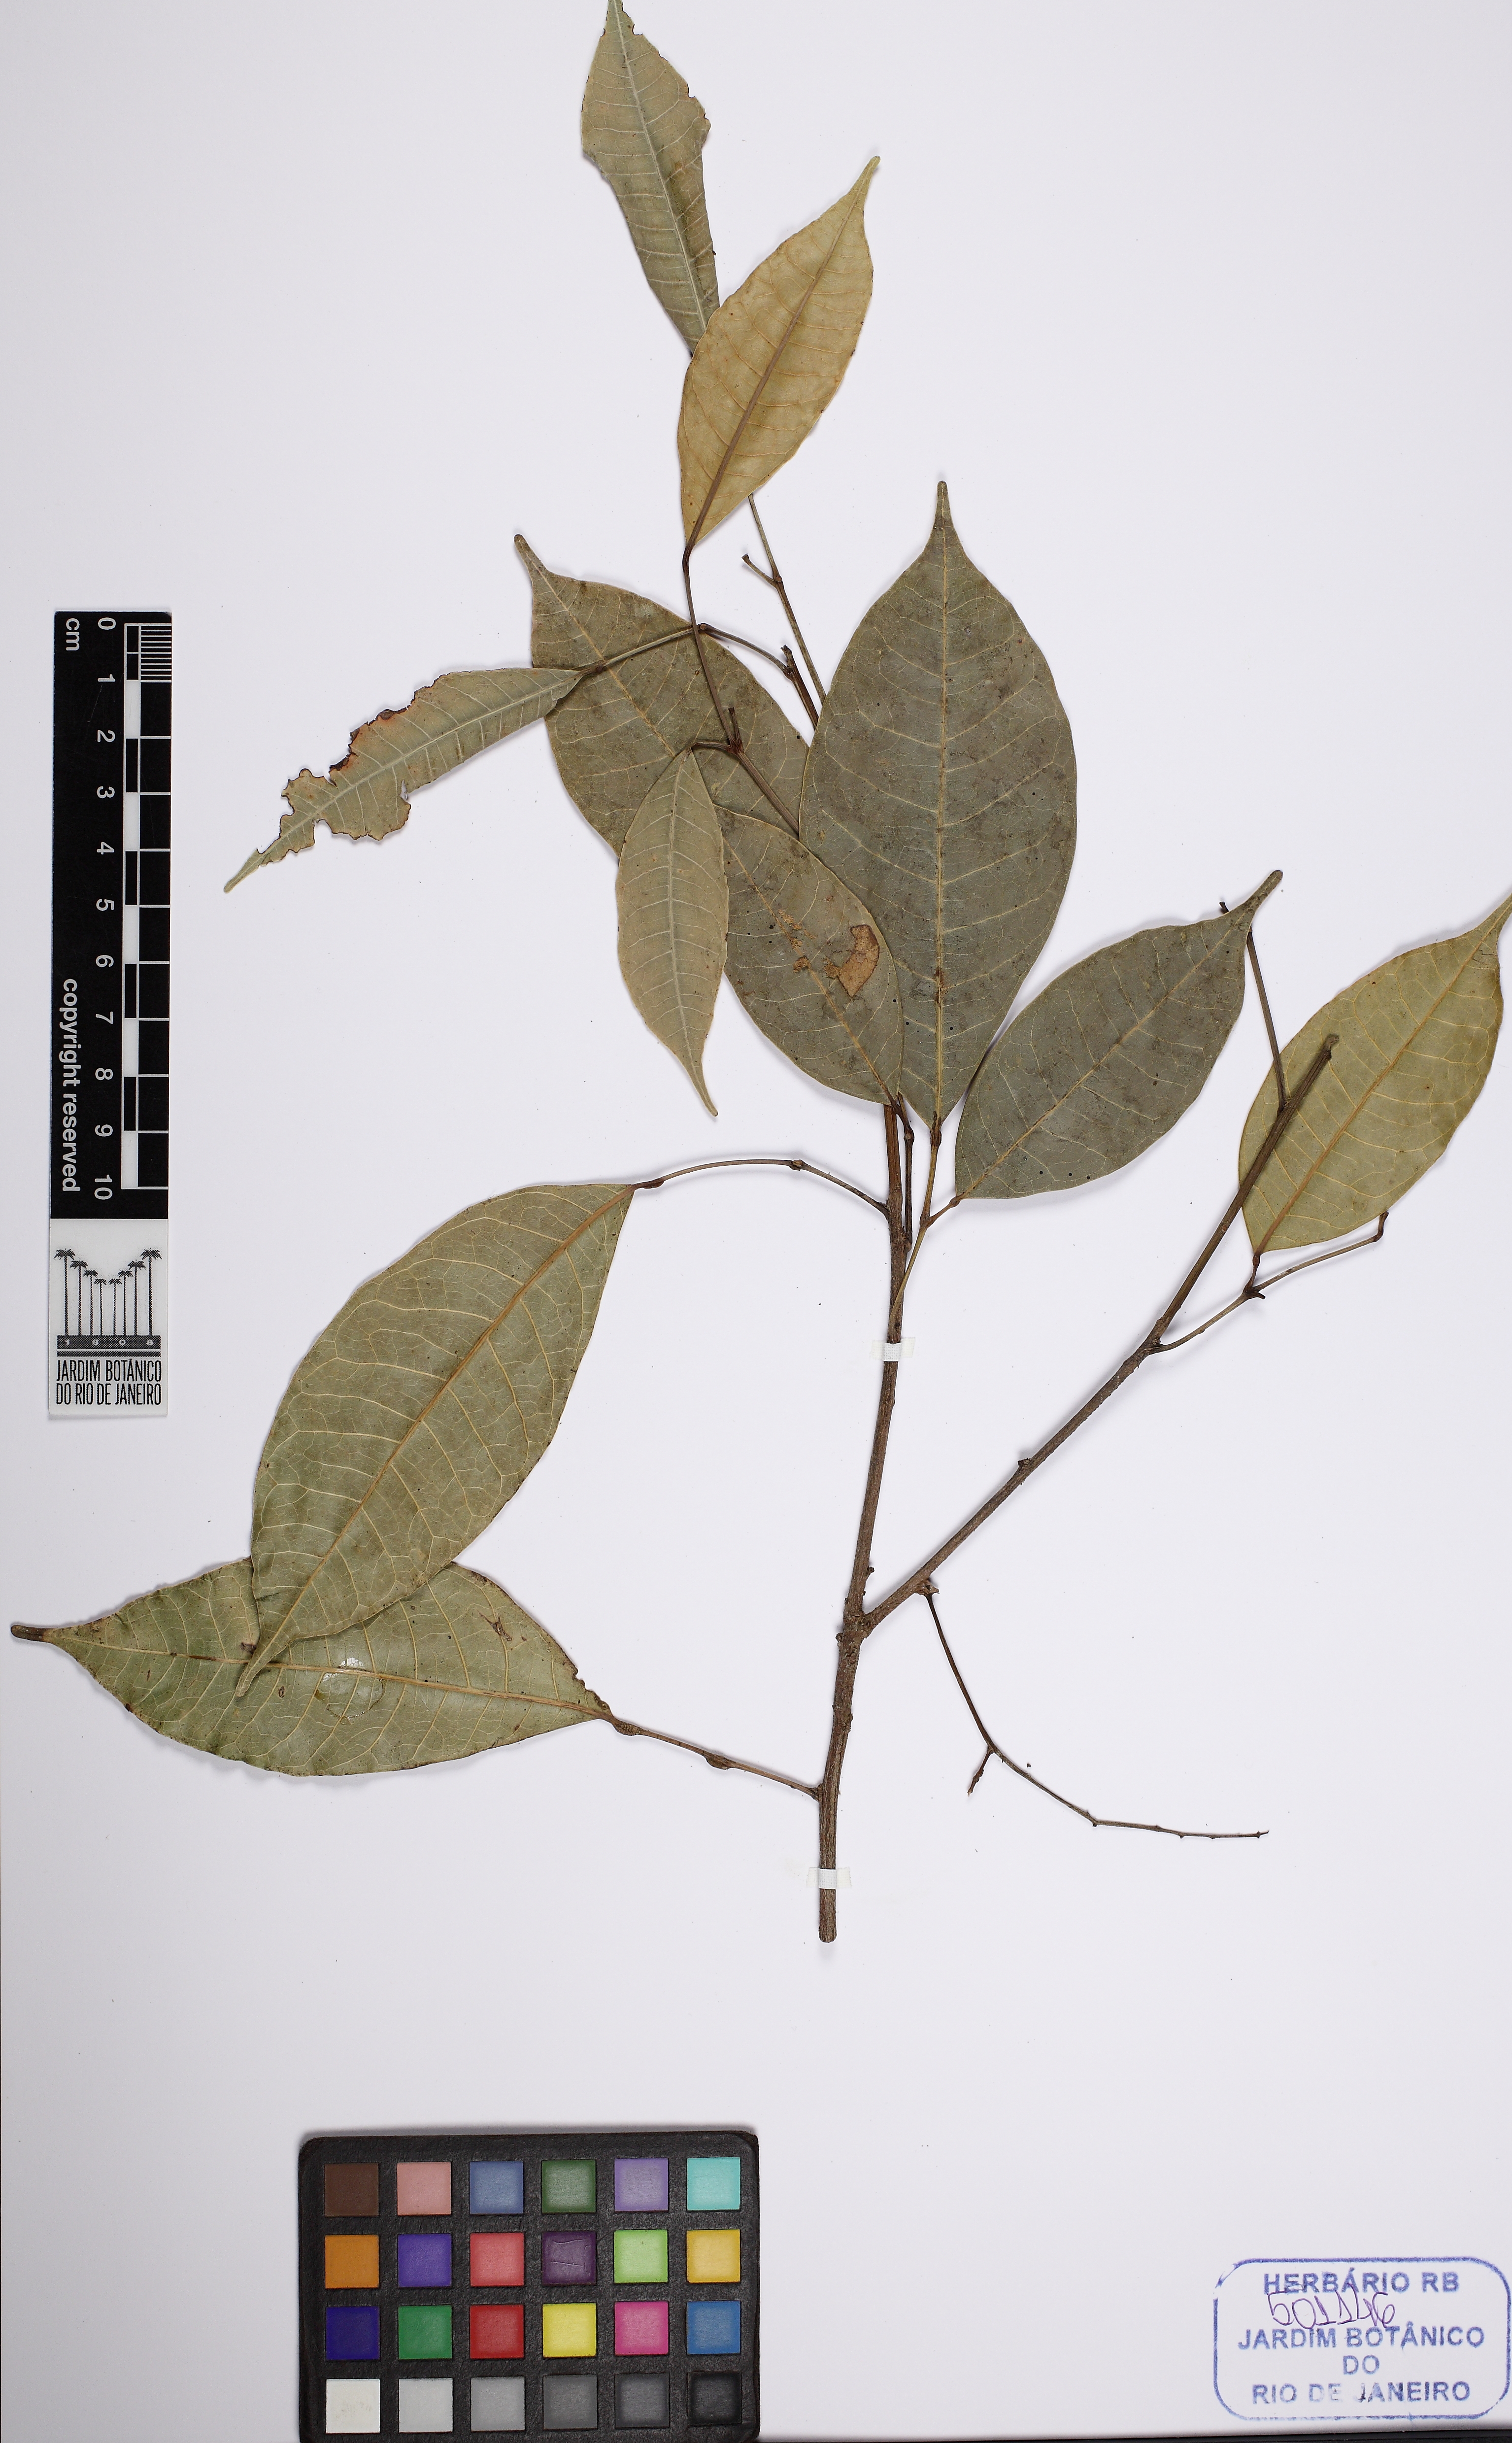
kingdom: Plantae
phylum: Tracheophyta
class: Magnoliopsida
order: Sapindales
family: Burseraceae
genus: Protium
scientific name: Protium aracouchini
